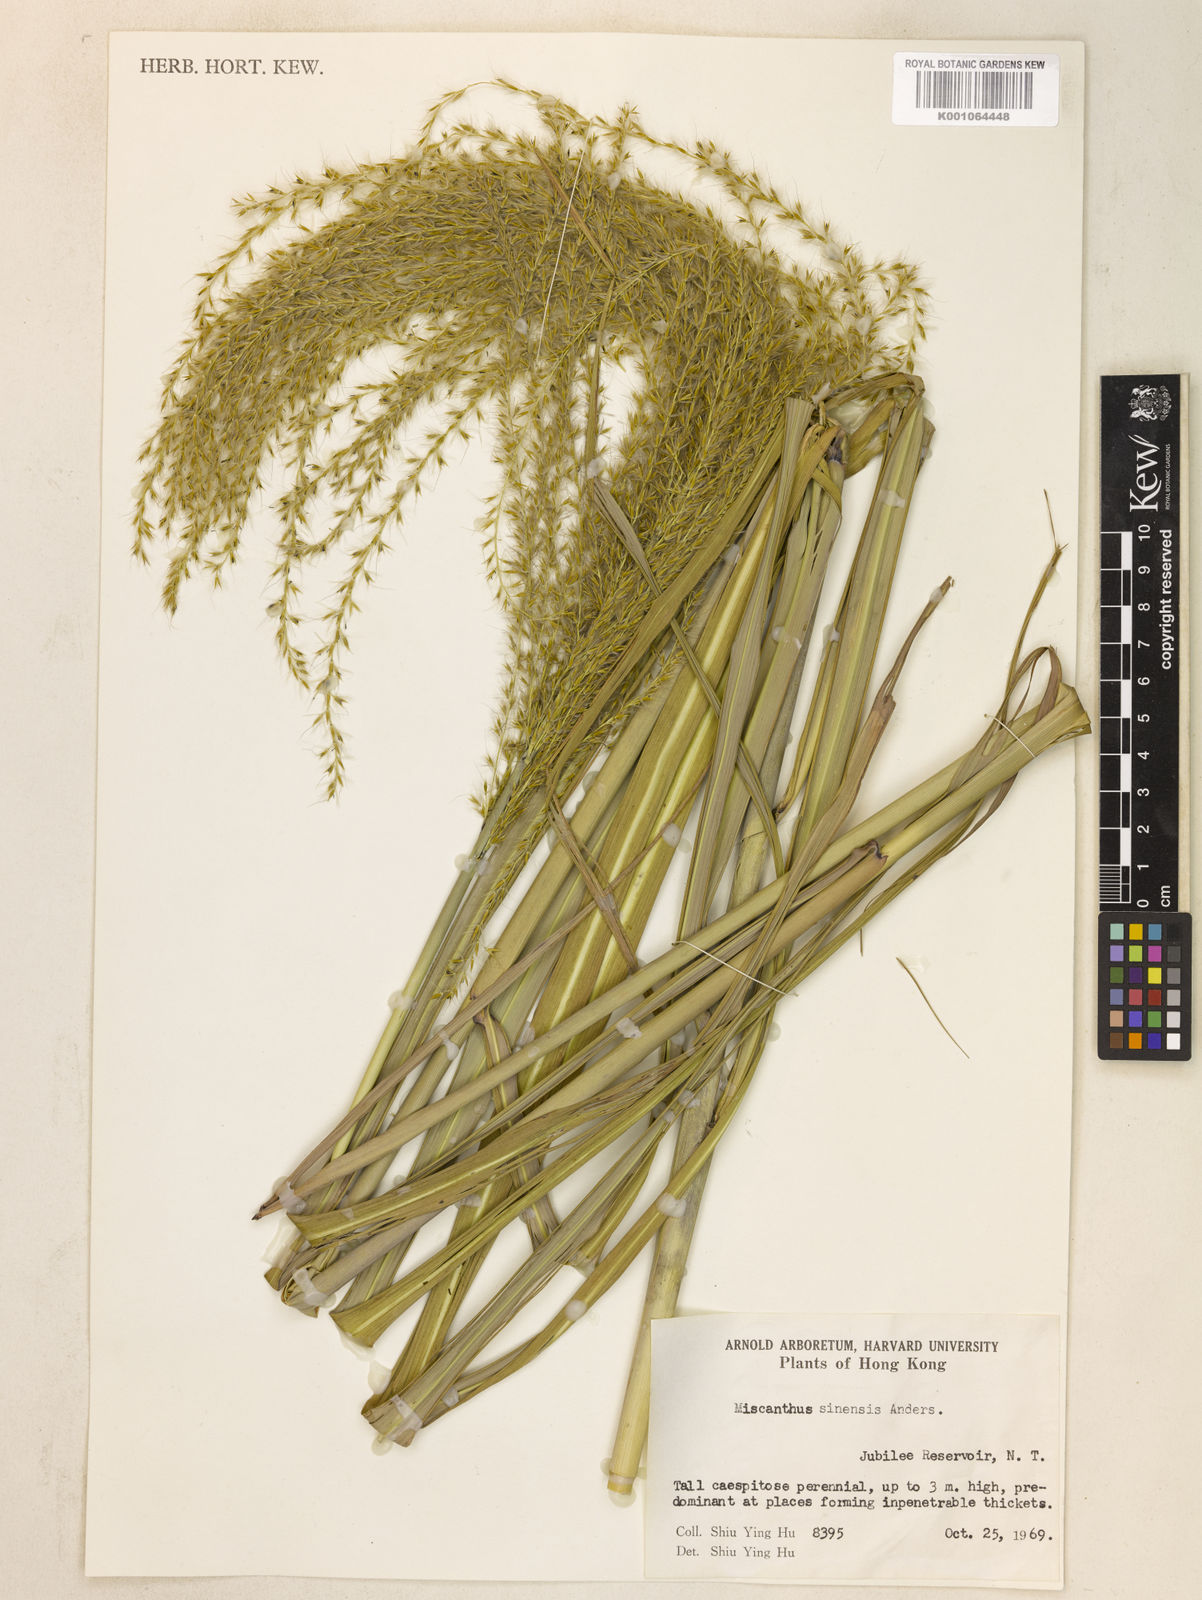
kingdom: Plantae
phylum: Tracheophyta
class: Liliopsida
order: Poales
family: Poaceae
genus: Miscanthus
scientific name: Miscanthus sinensis
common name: Chinese silvergrass
